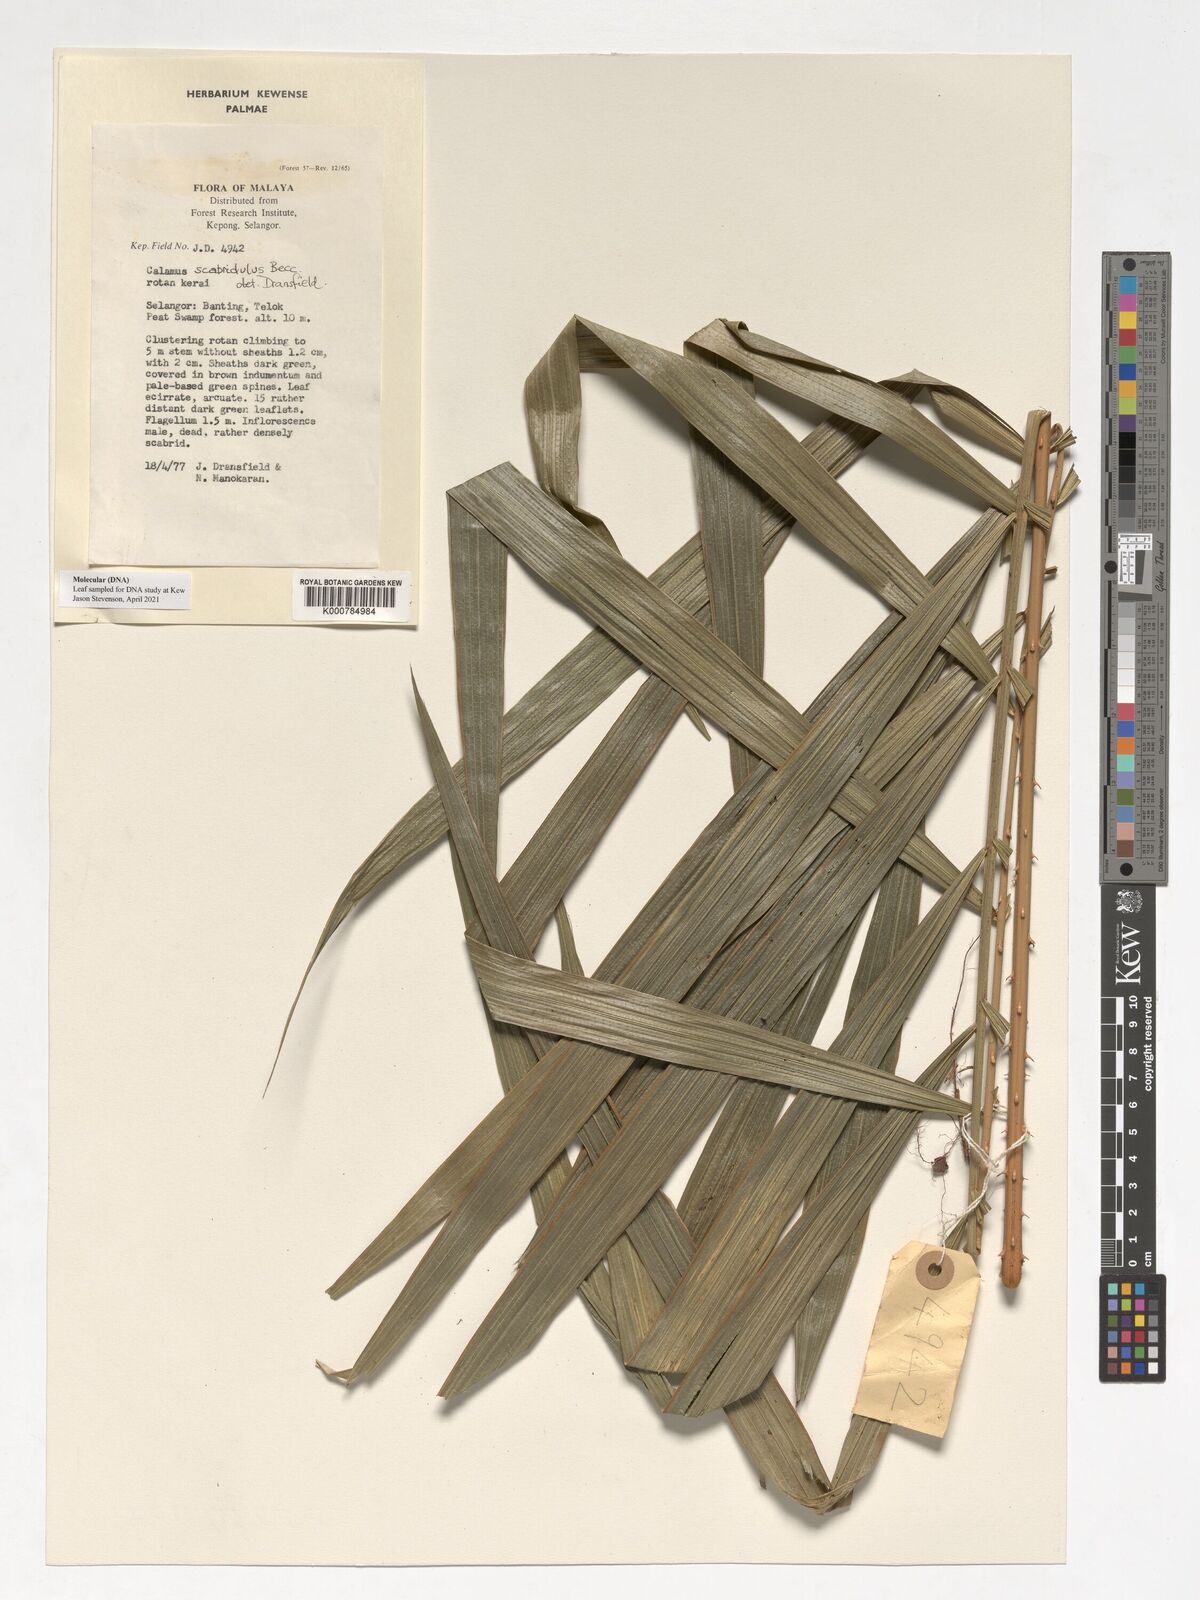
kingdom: Plantae
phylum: Tracheophyta
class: Liliopsida
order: Arecales
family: Arecaceae
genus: Calamus
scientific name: Calamus scabridulus
